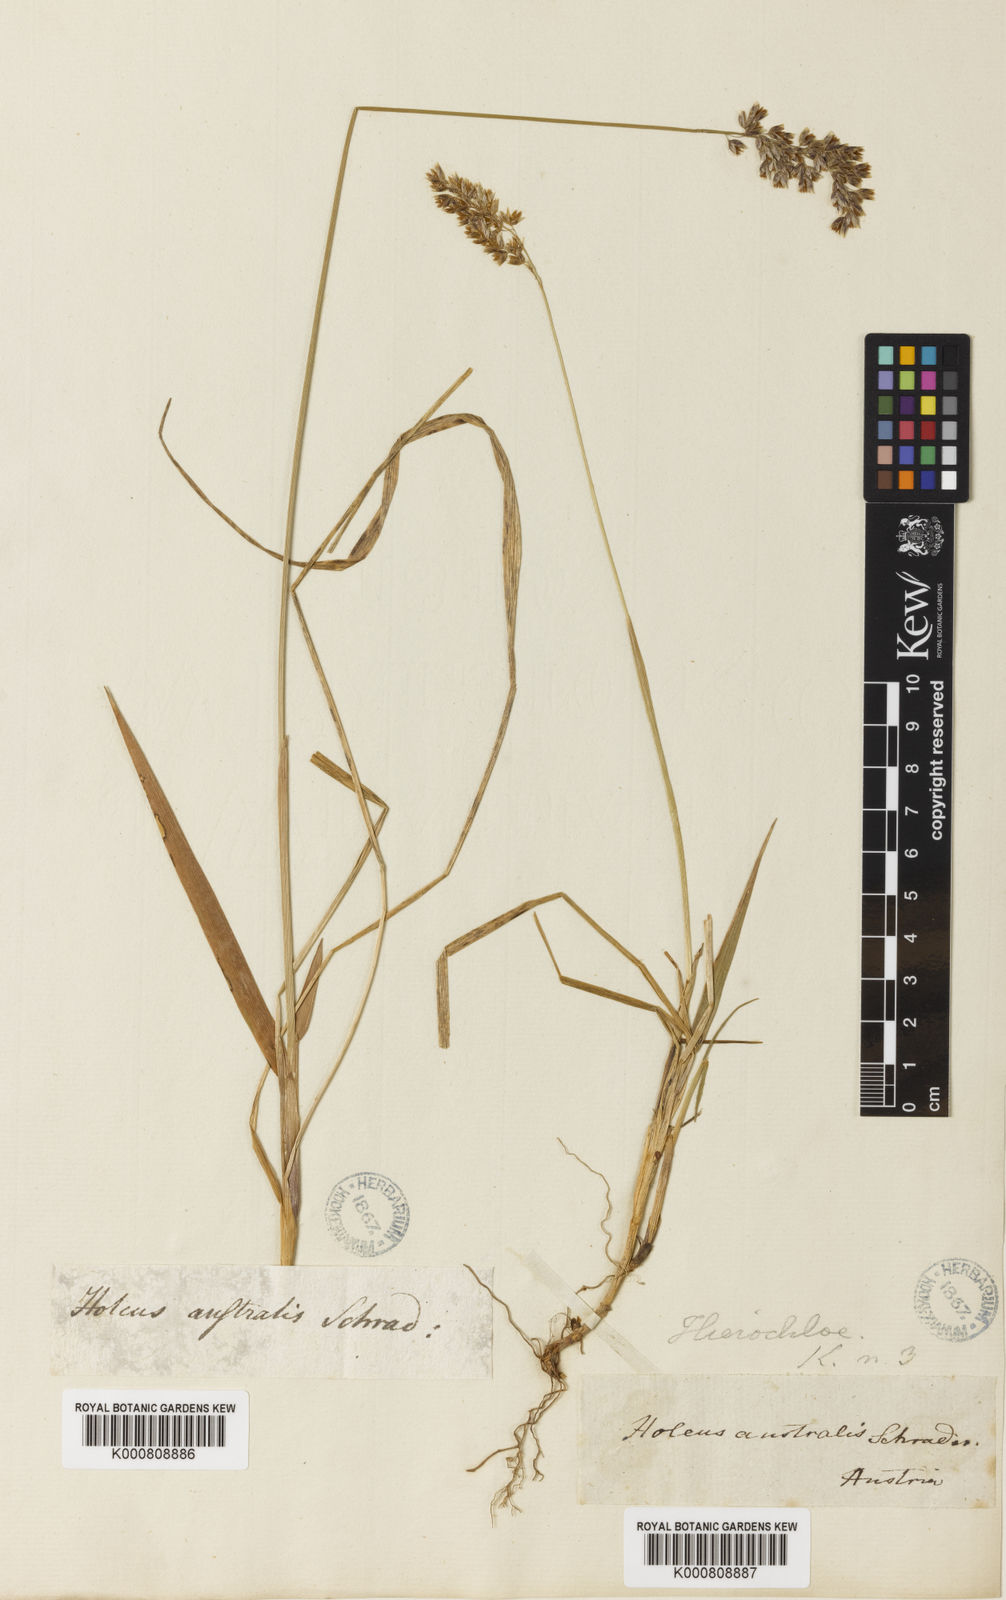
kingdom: Plantae
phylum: Tracheophyta
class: Liliopsida
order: Poales
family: Poaceae
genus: Anthoxanthum
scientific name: Anthoxanthum australe
